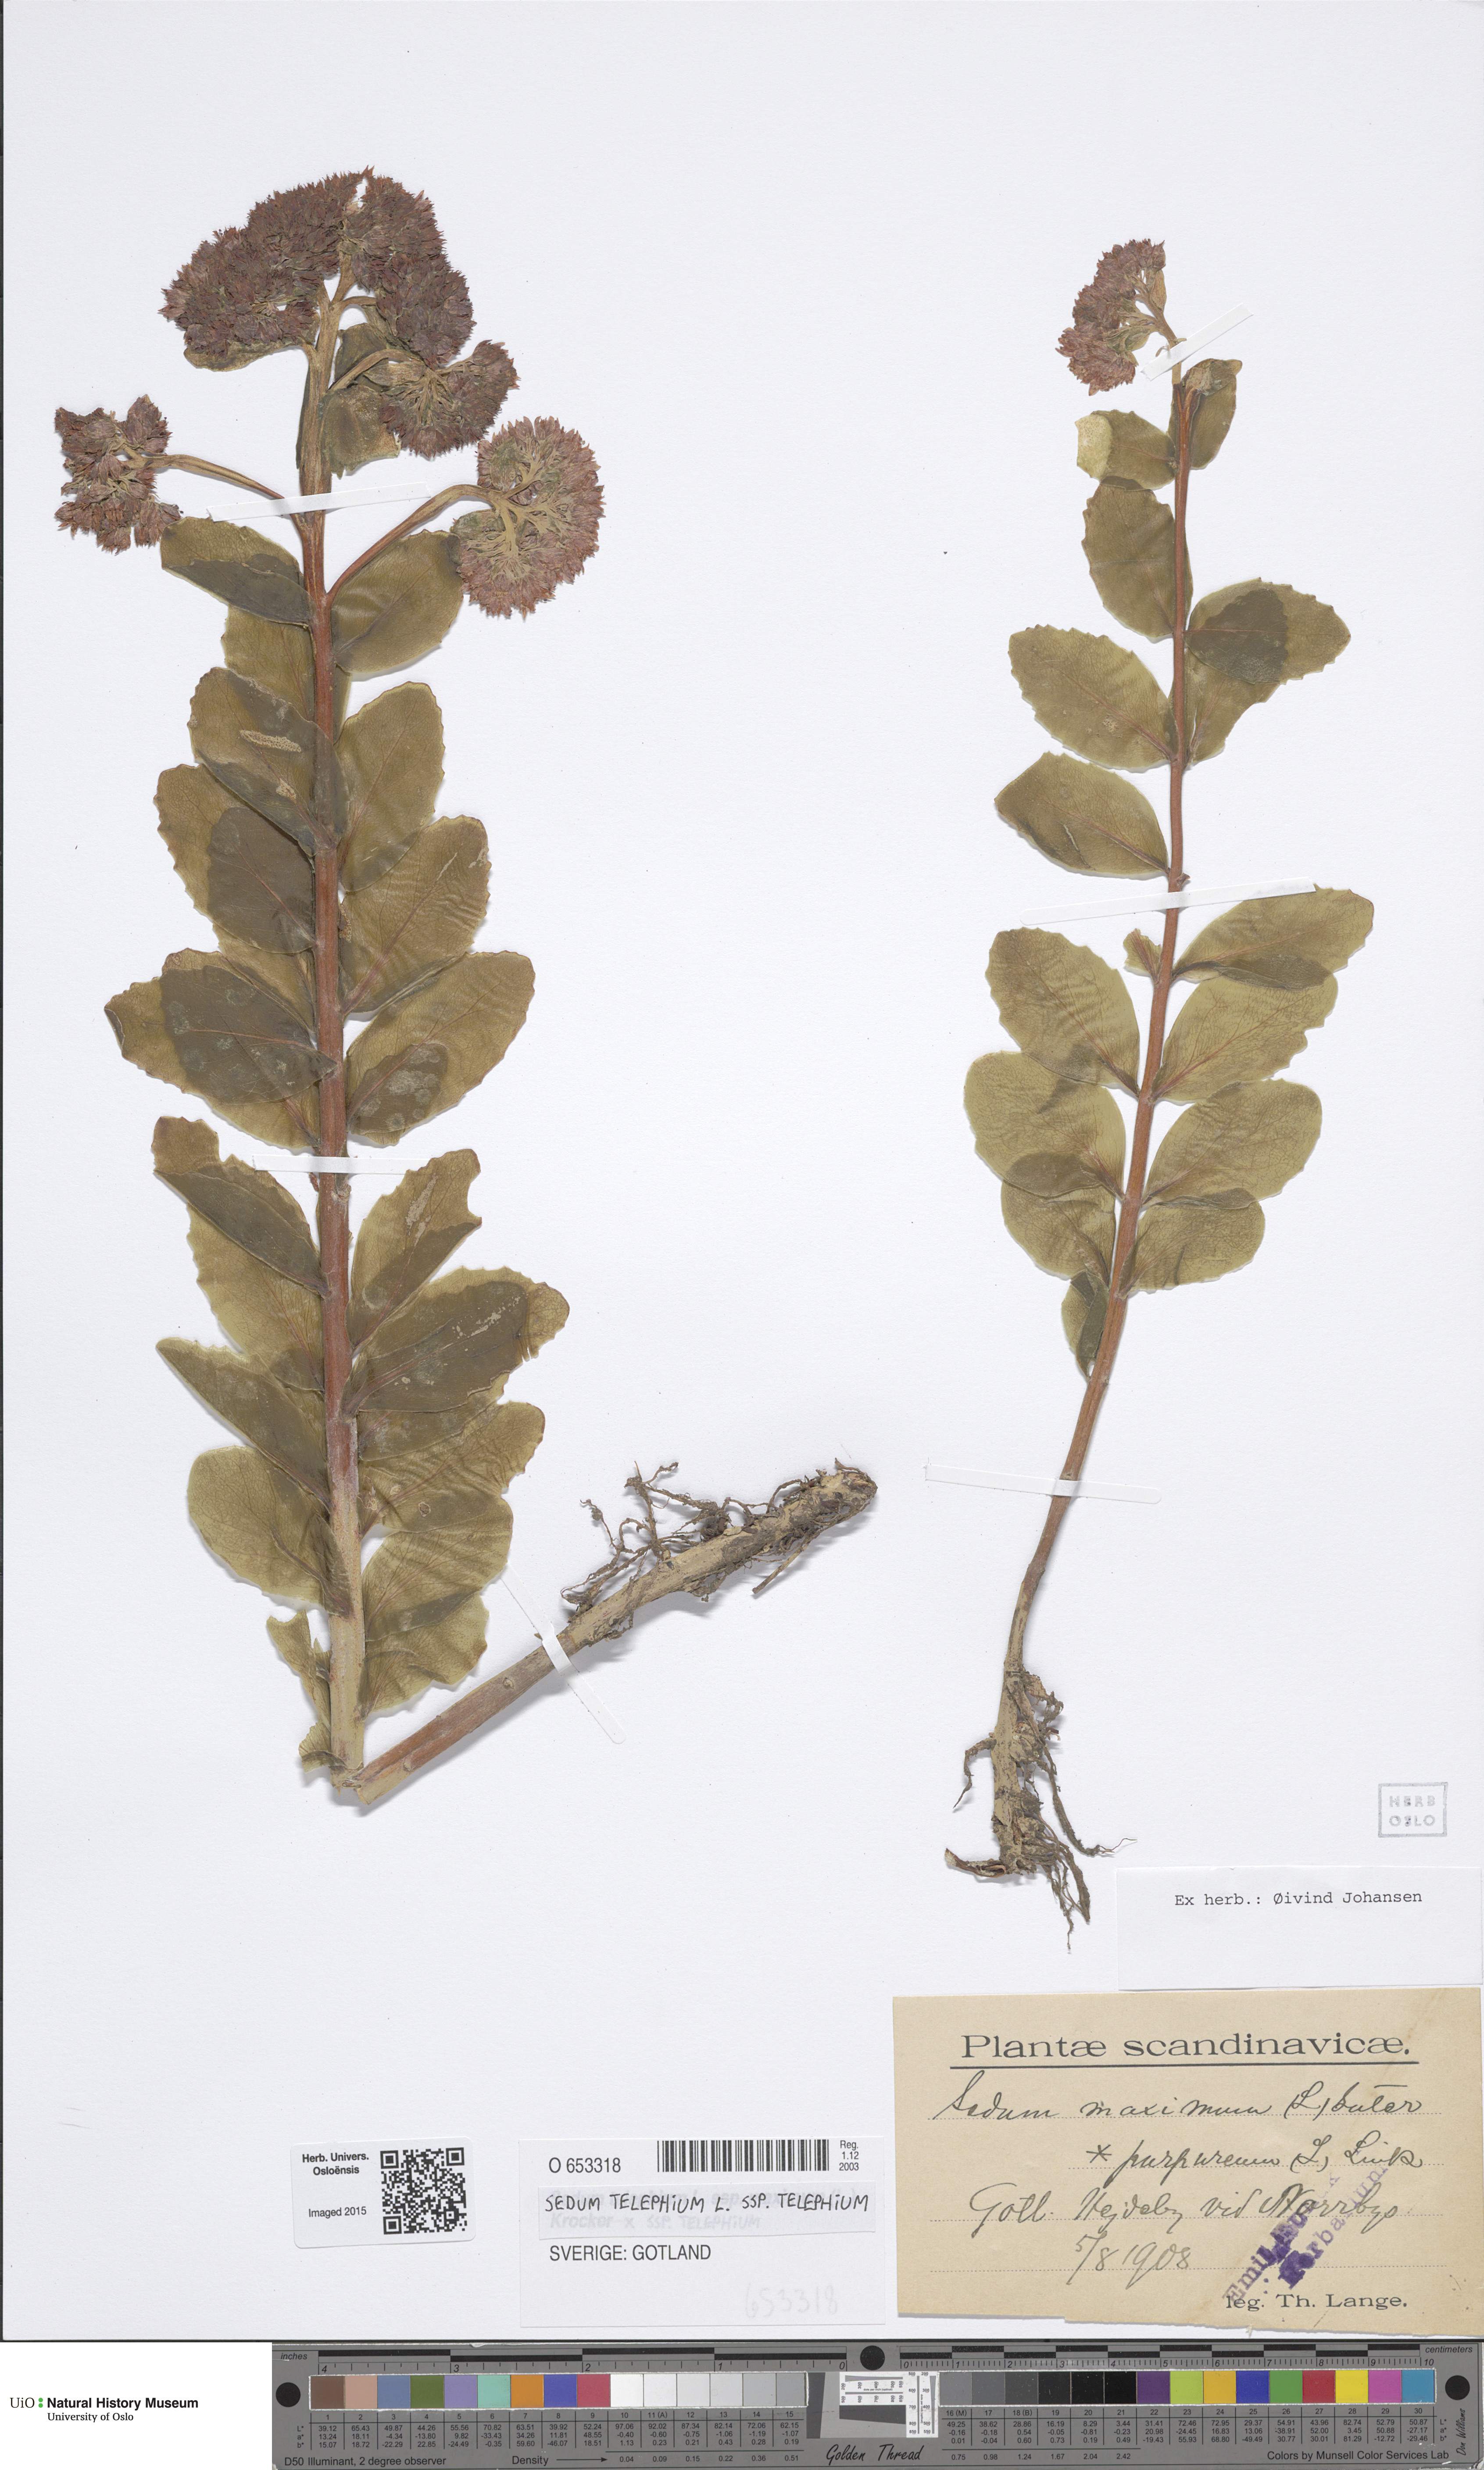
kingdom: Plantae
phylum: Tracheophyta
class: Magnoliopsida
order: Saxifragales
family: Crassulaceae
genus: Hylotelephium
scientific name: Hylotelephium telephium
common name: Live-forever
